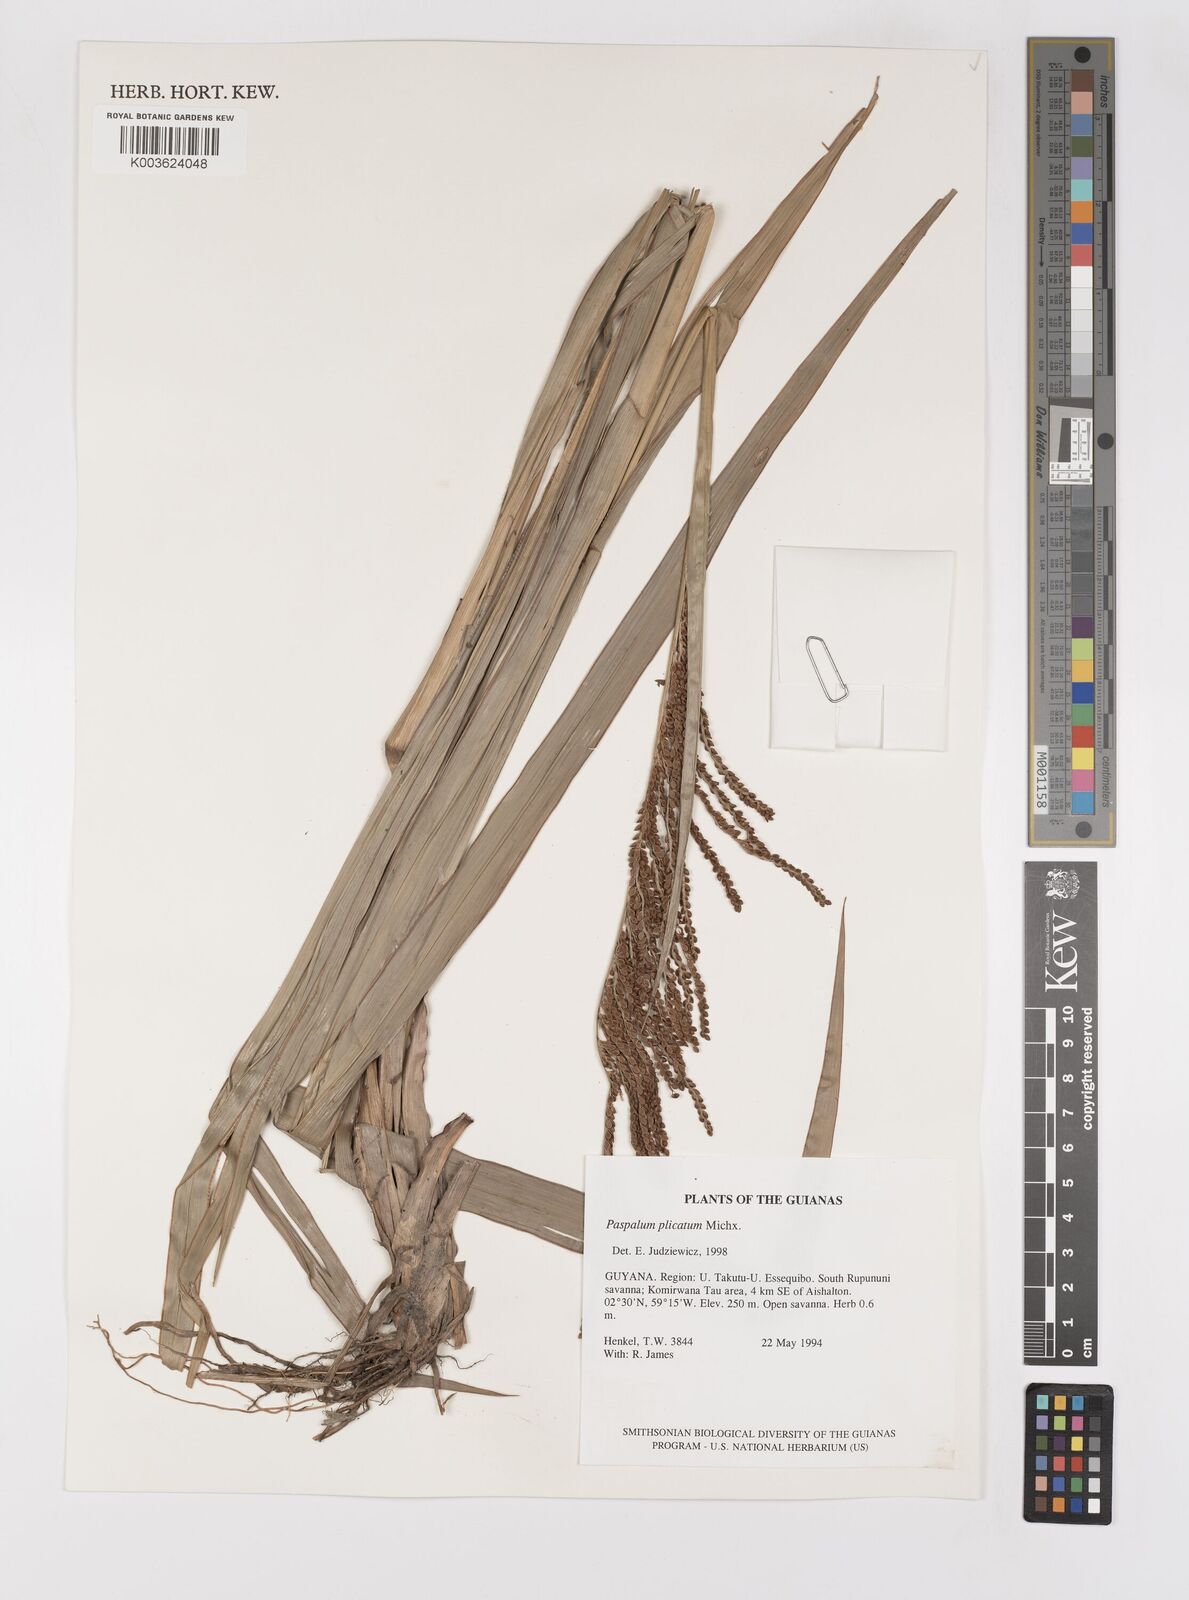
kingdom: Plantae
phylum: Tracheophyta
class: Liliopsida
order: Poales
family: Poaceae
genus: Paspalum
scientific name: Paspalum plicatulum
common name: Top paspalum
